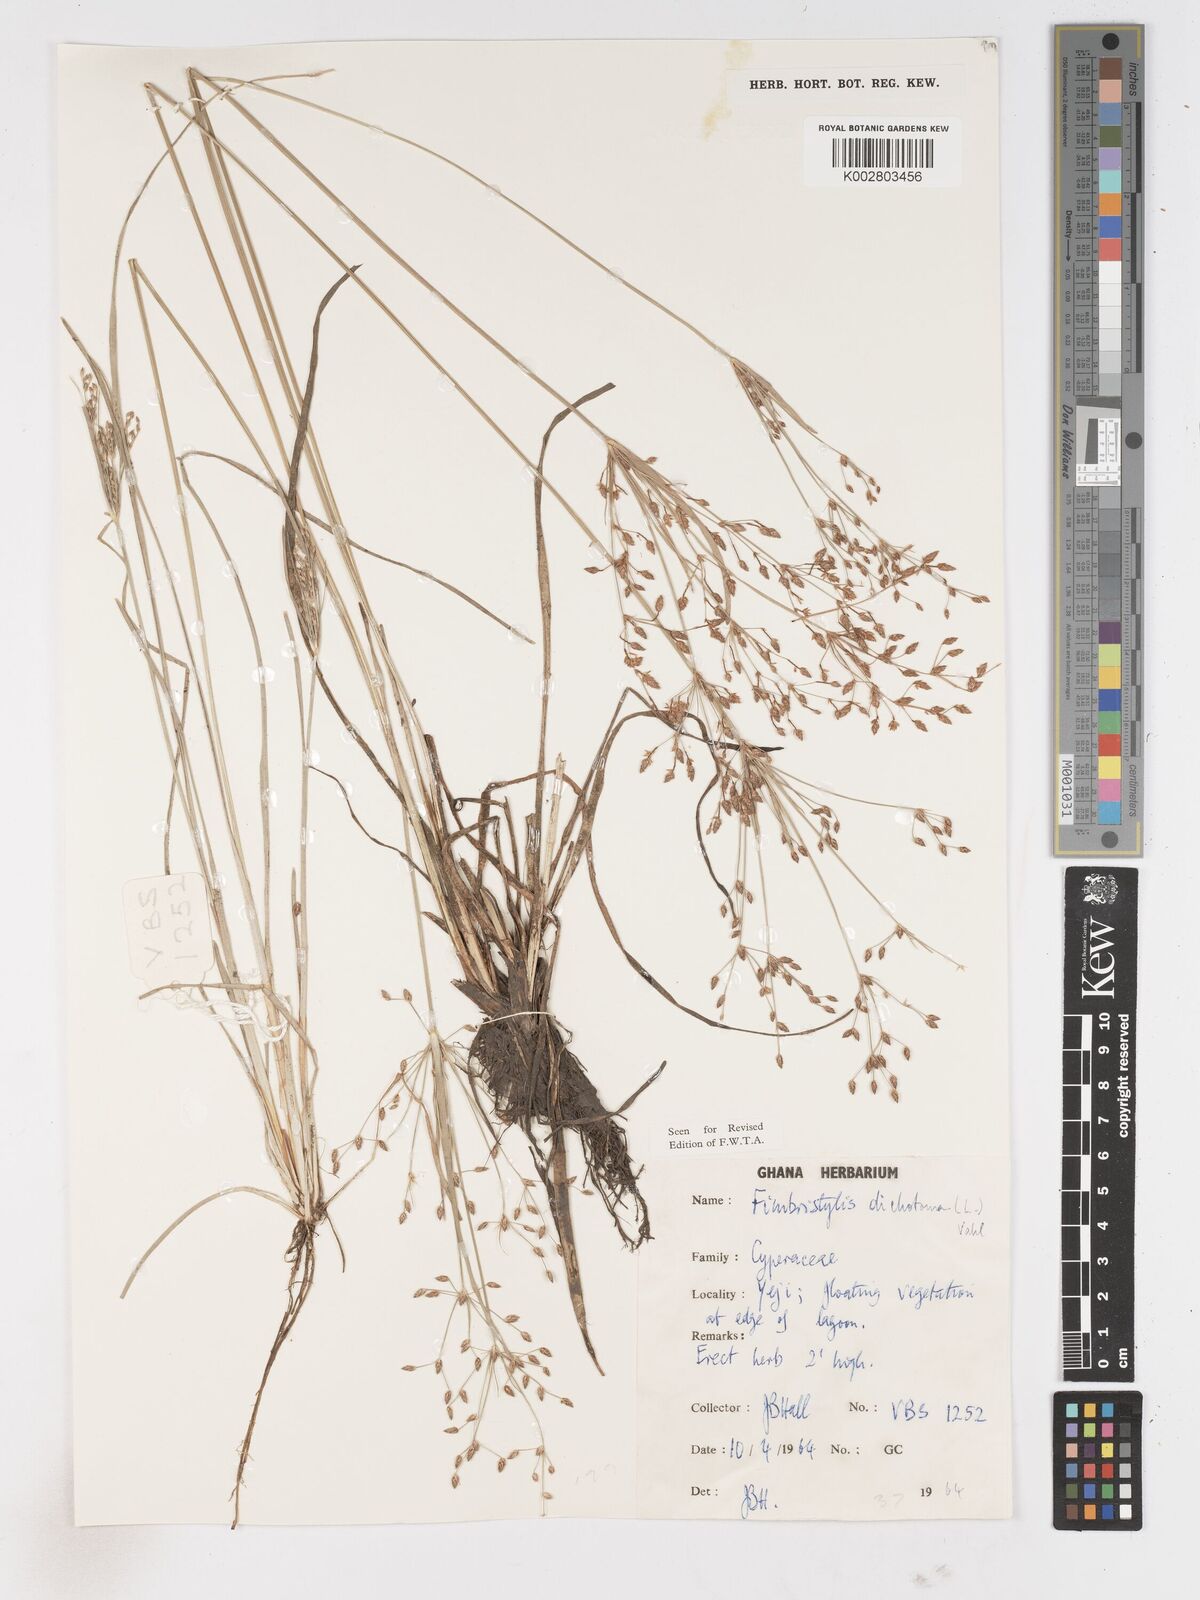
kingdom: Plantae
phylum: Tracheophyta
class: Liliopsida
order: Poales
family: Cyperaceae
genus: Fimbristylis
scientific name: Fimbristylis dichotoma
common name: Forked fimbry
